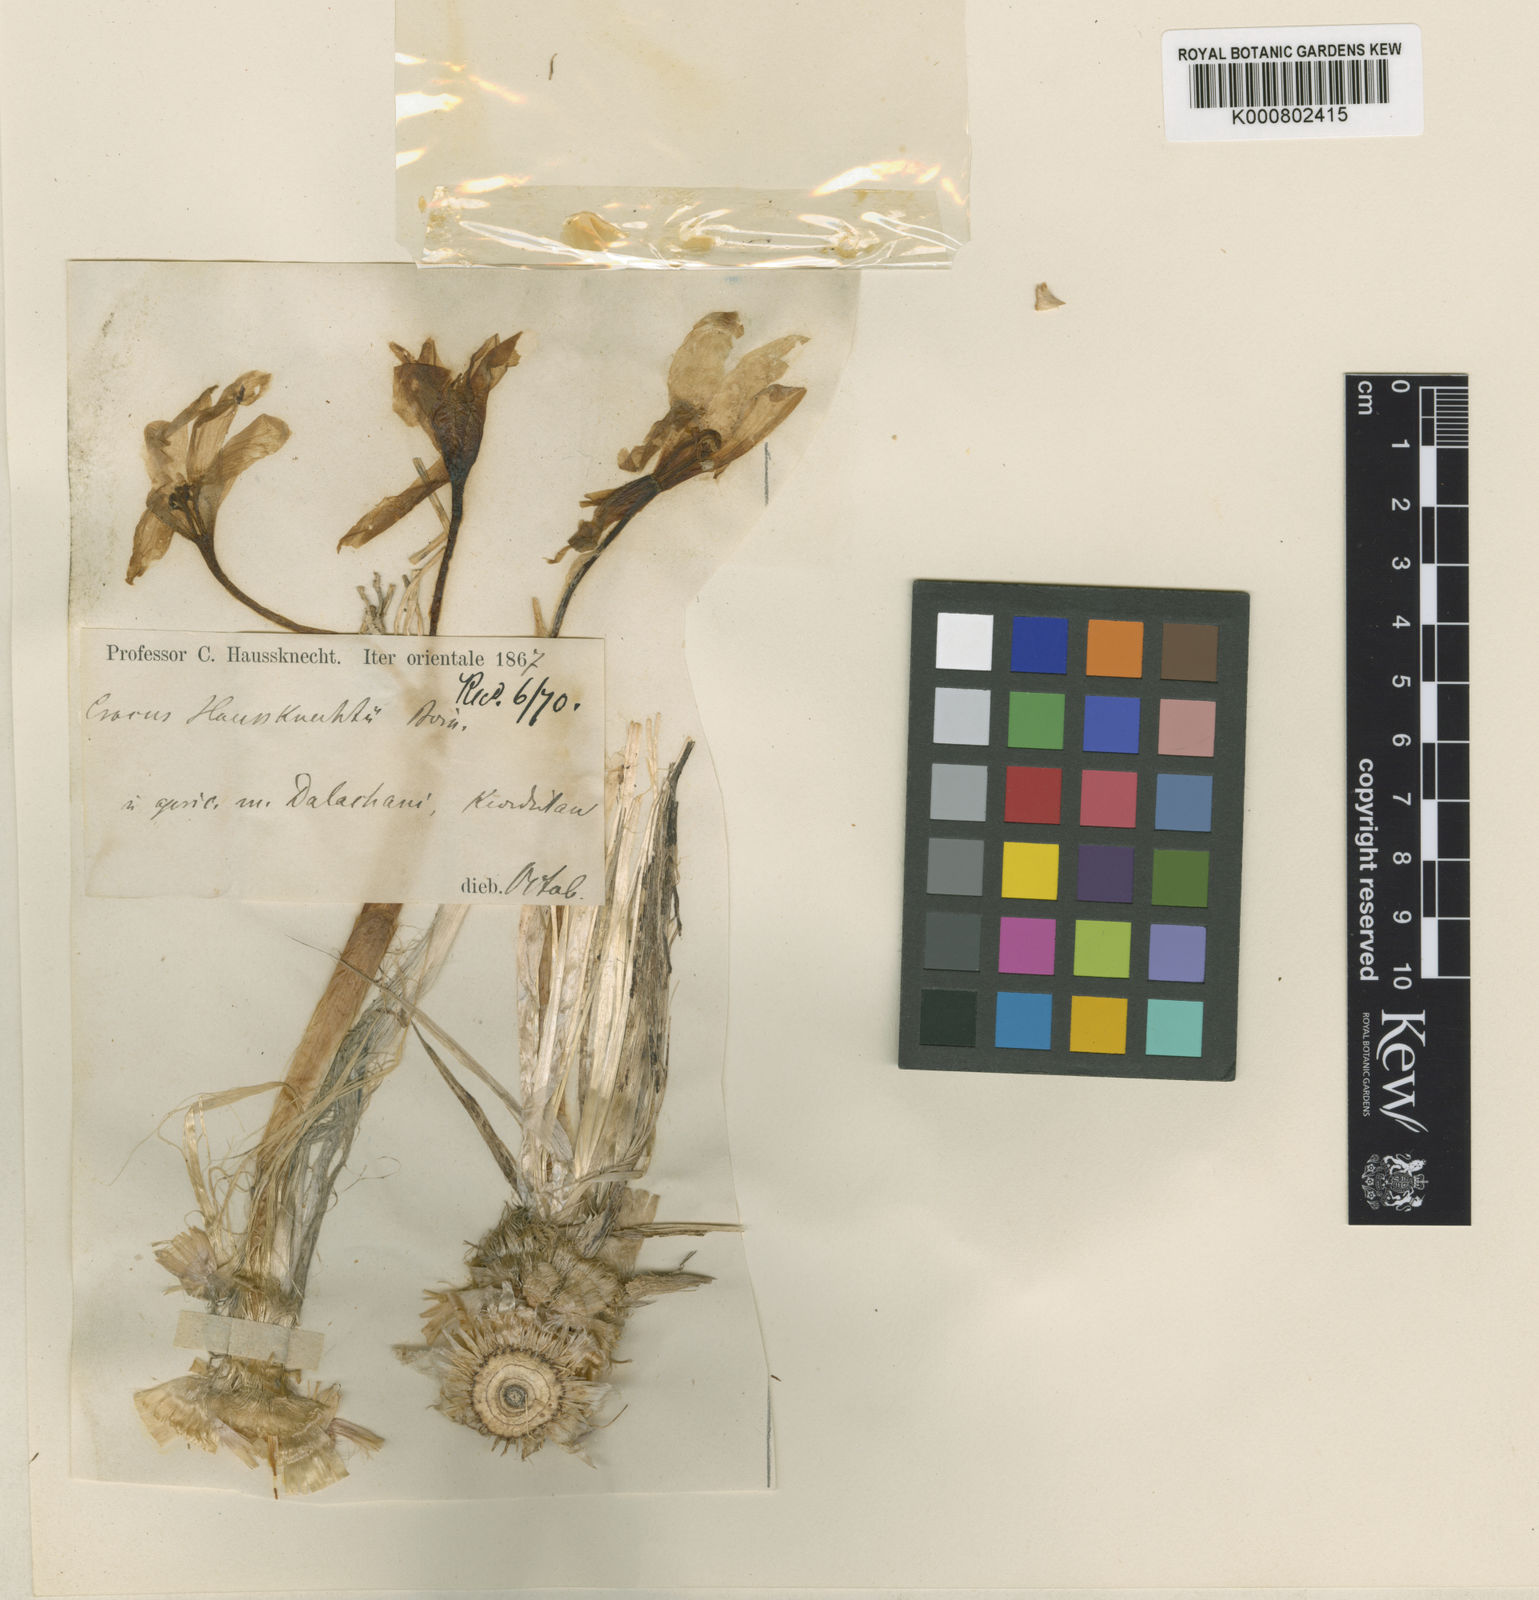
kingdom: Plantae
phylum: Tracheophyta
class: Liliopsida
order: Asparagales
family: Iridaceae
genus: Crocus
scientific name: Crocus haussknechtii
